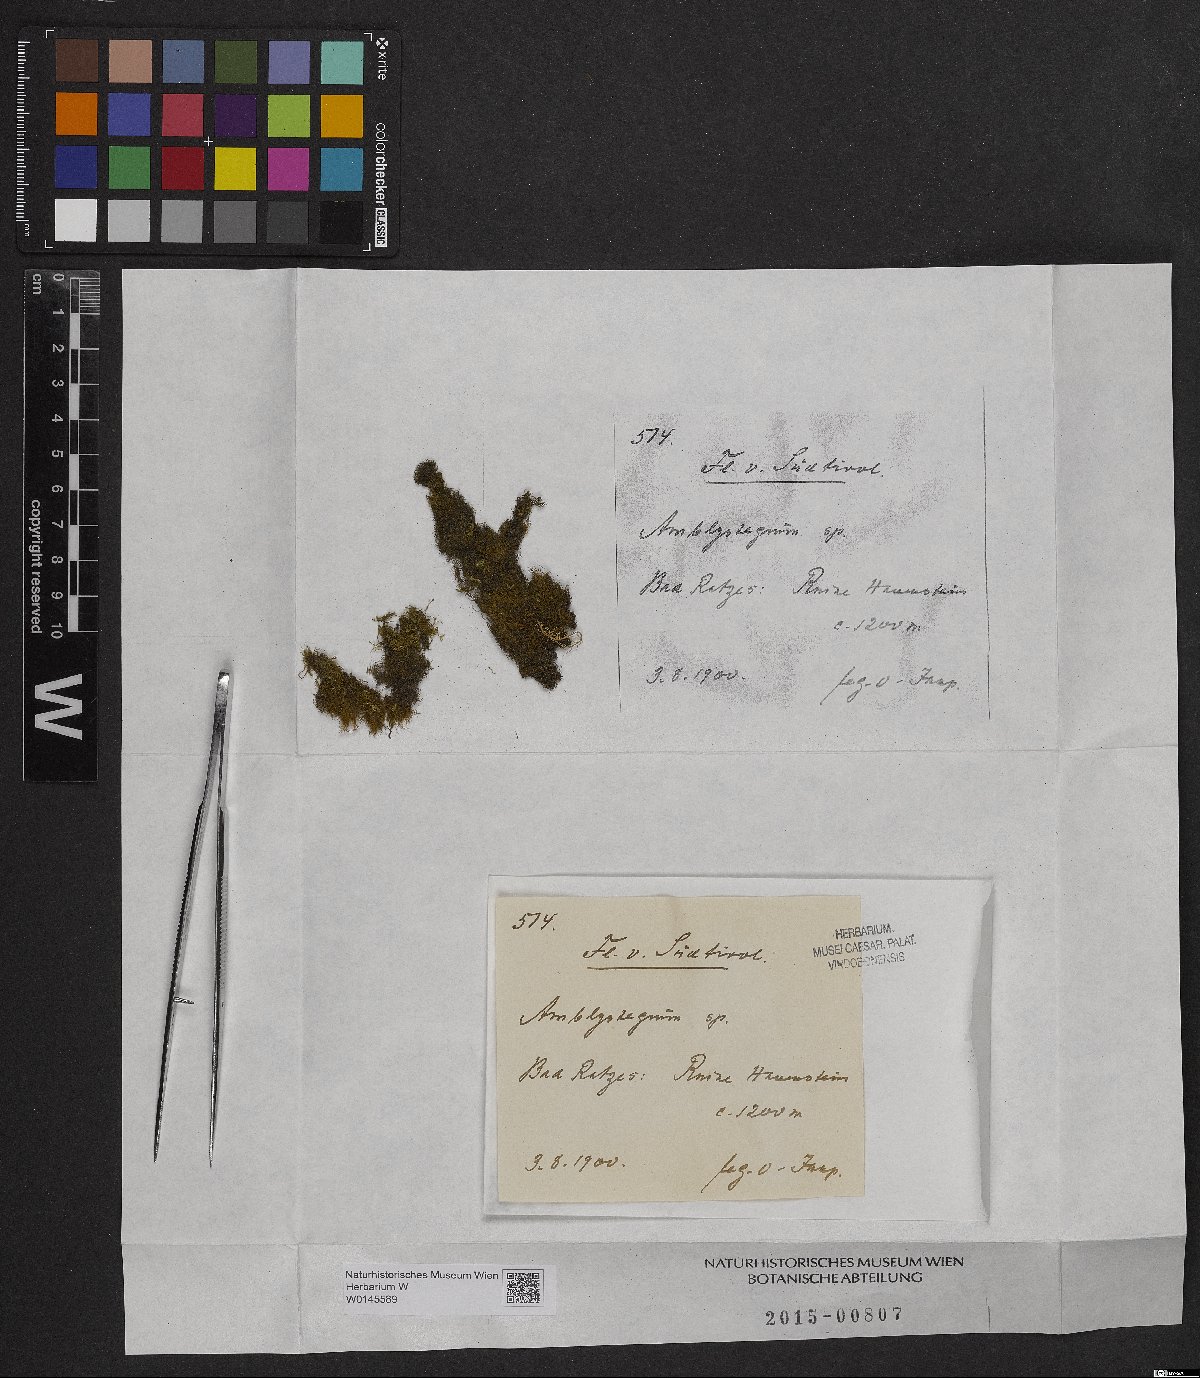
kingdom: Plantae
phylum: Bryophyta
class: Bryopsida
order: Hypnales
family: Amblystegiaceae
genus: Amblystegium
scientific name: Amblystegium
